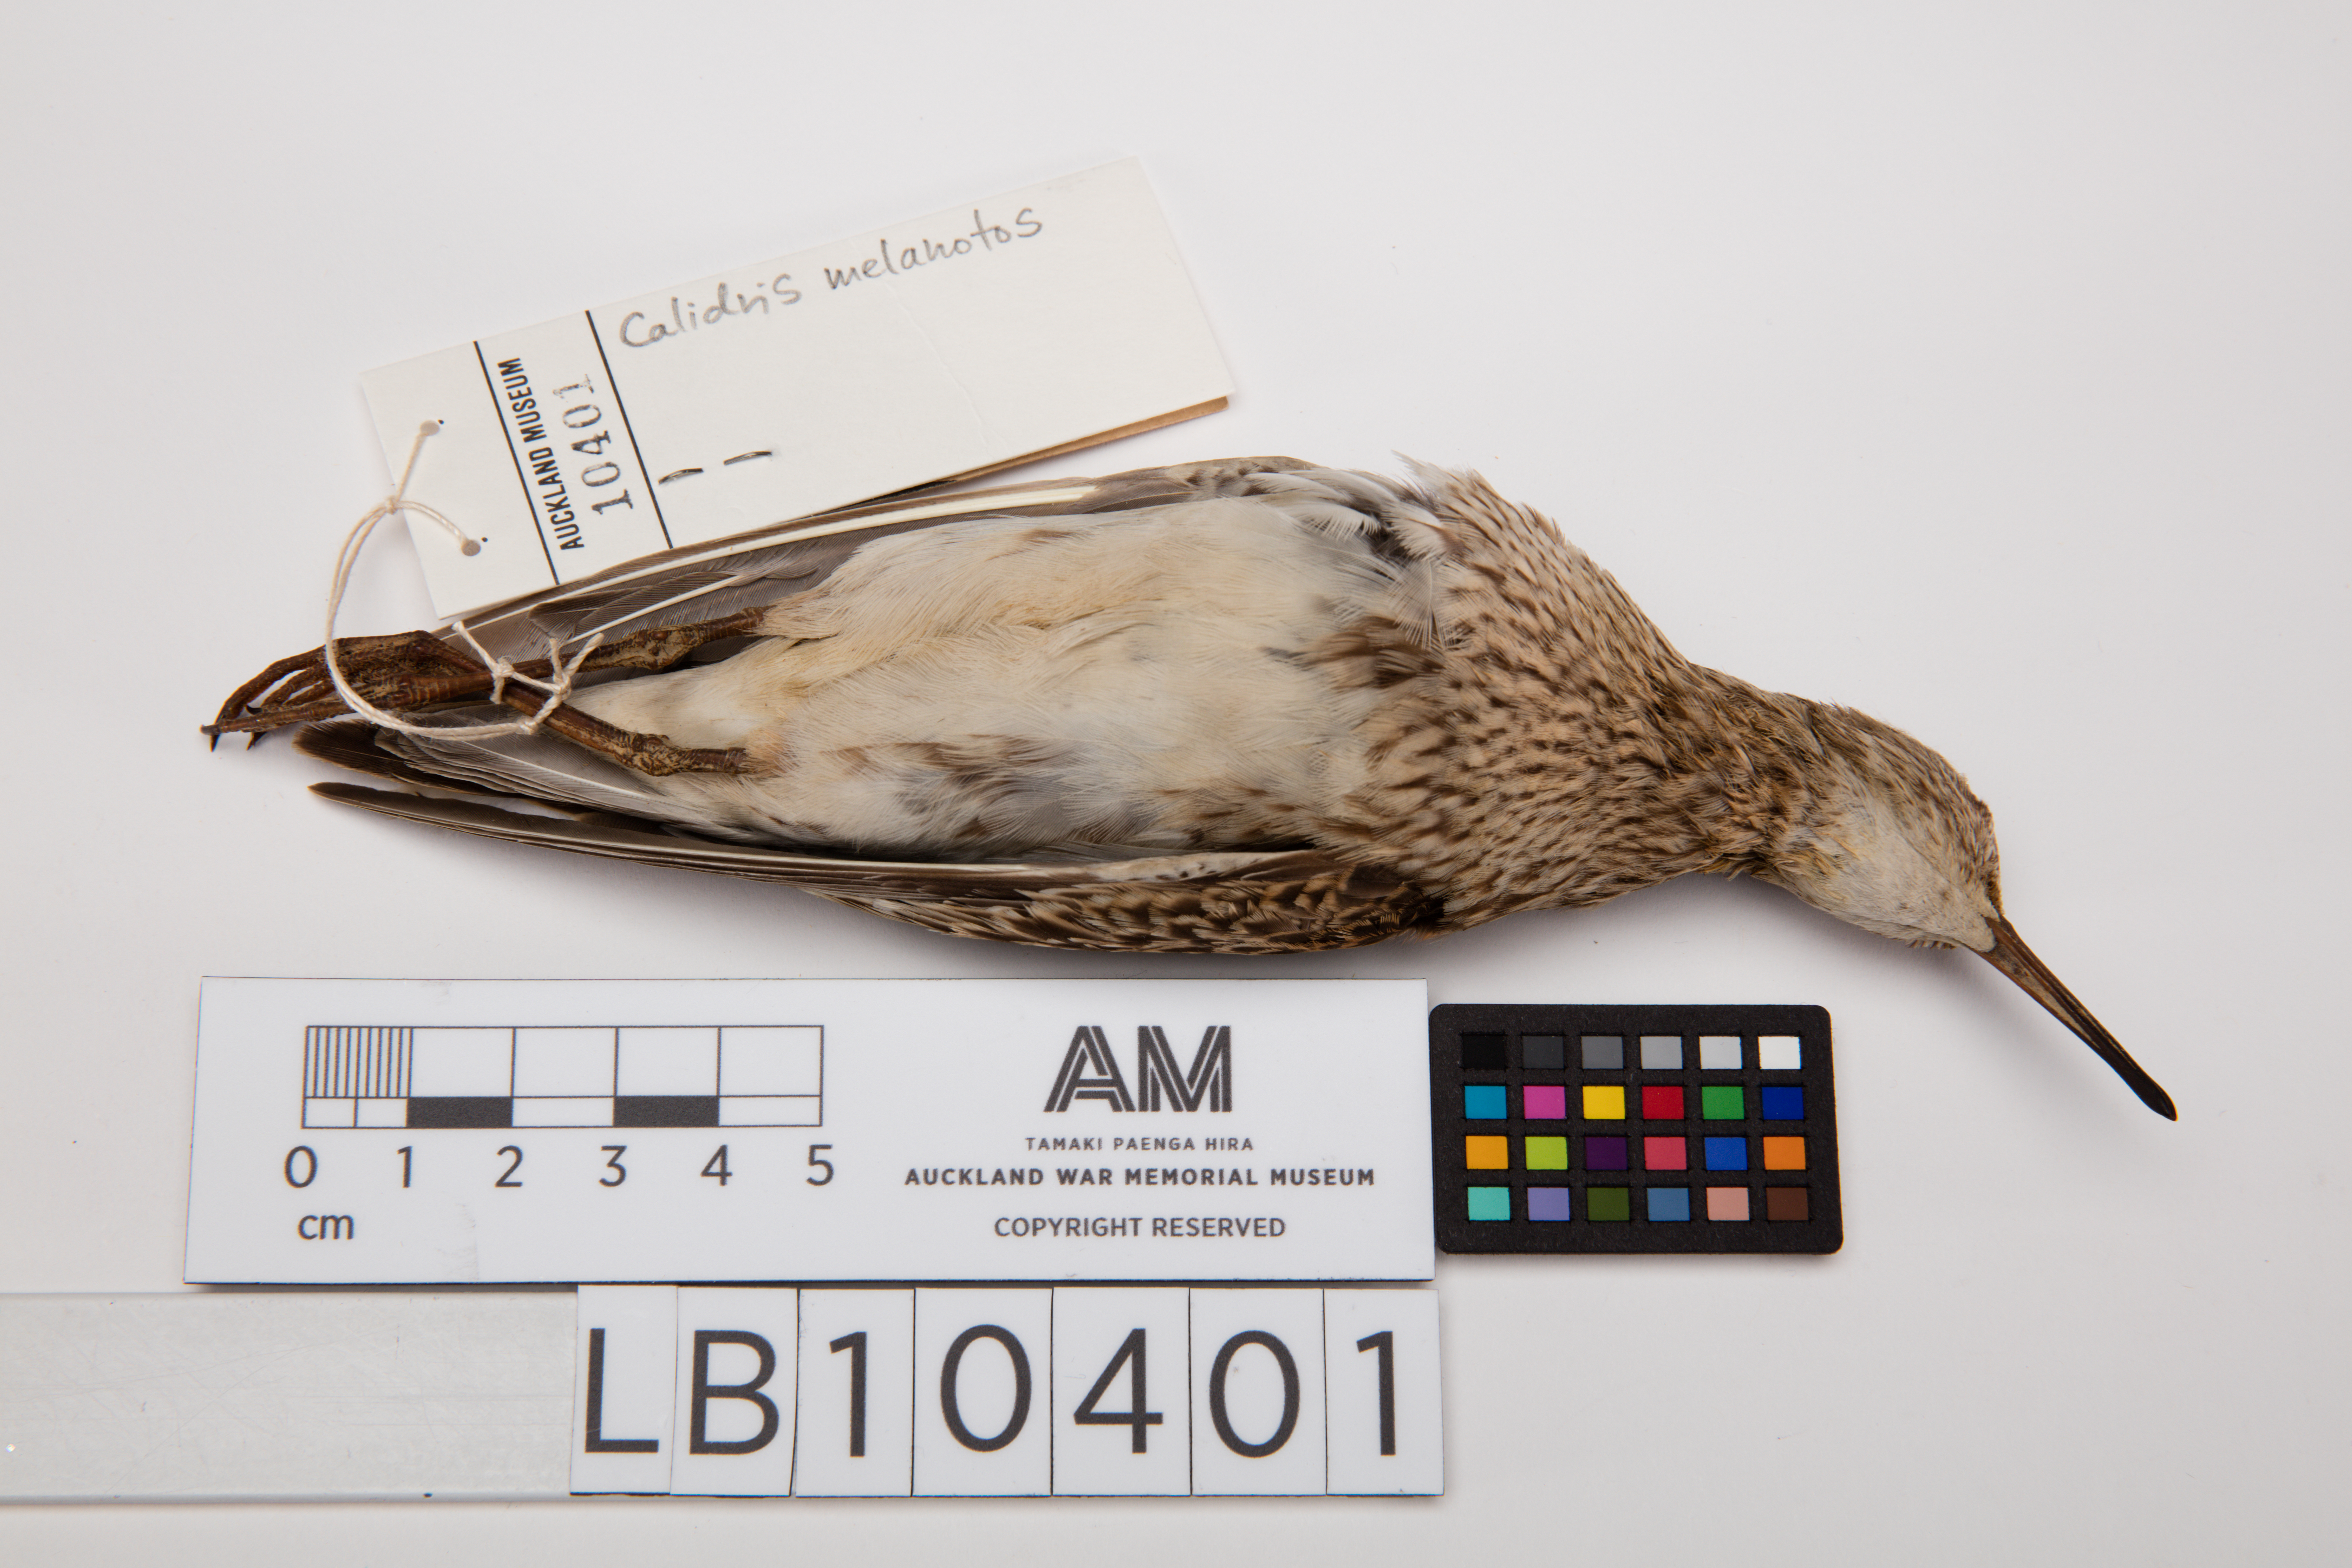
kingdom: Animalia
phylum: Chordata
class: Aves
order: Charadriiformes
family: Scolopacidae
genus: Calidris
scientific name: Calidris melanotos
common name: Pectoral sandpiper
